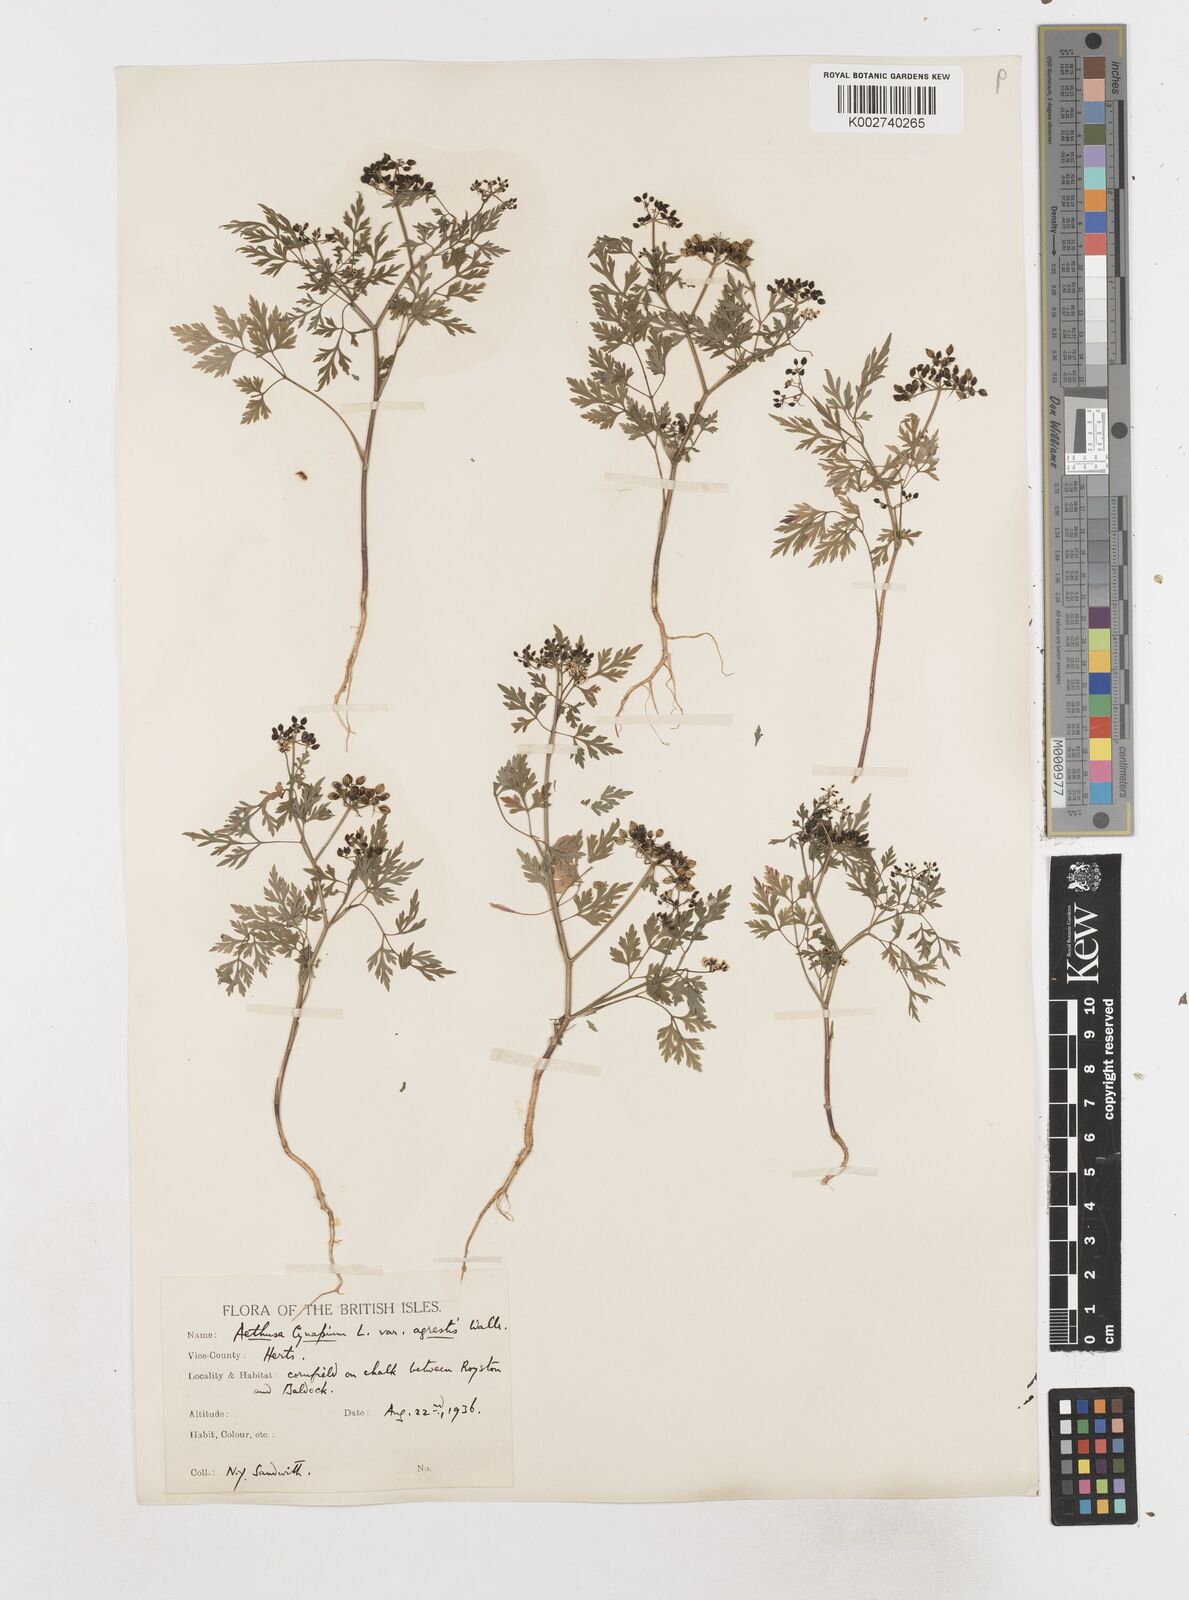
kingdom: Plantae
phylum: Tracheophyta
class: Magnoliopsida
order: Apiales
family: Apiaceae
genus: Aethusa
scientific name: Aethusa cynapium
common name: Fool's parsley
